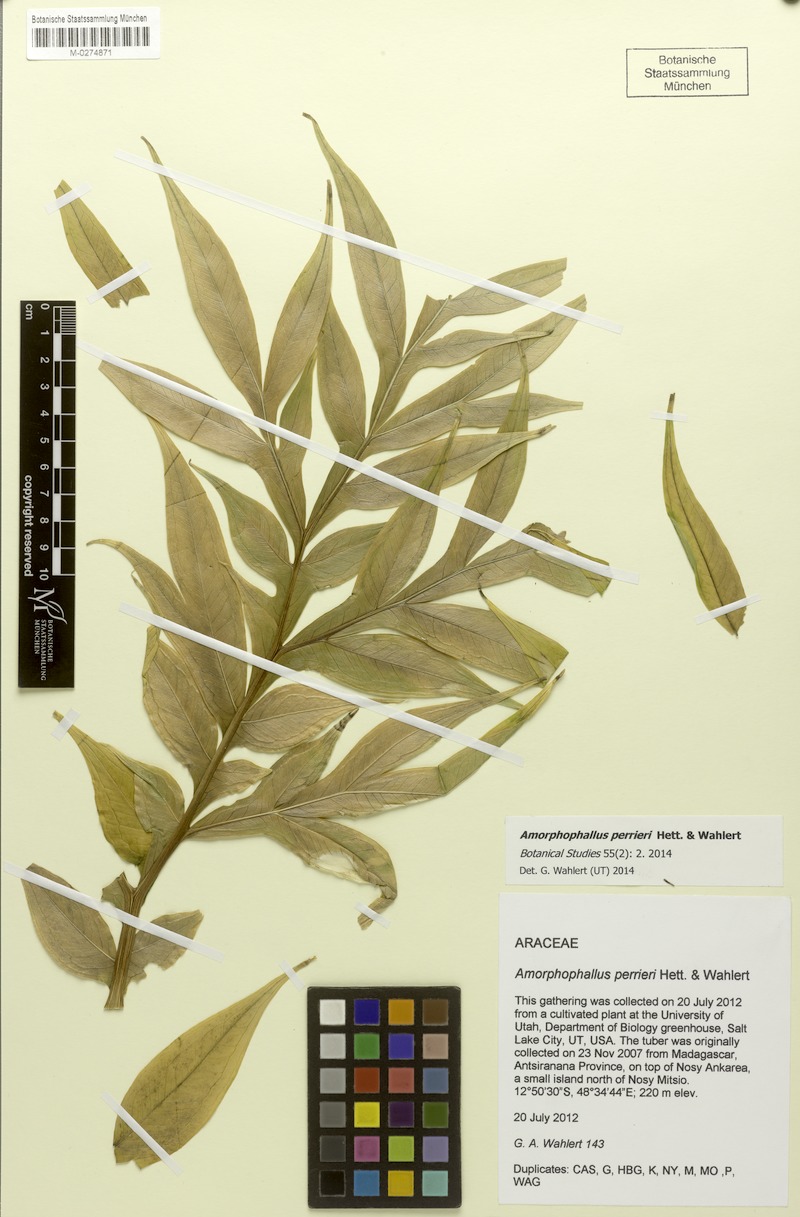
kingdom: Plantae
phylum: Tracheophyta
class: Liliopsida
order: Alismatales
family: Araceae
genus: Amorphophallus
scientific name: Amorphophallus perrieri
